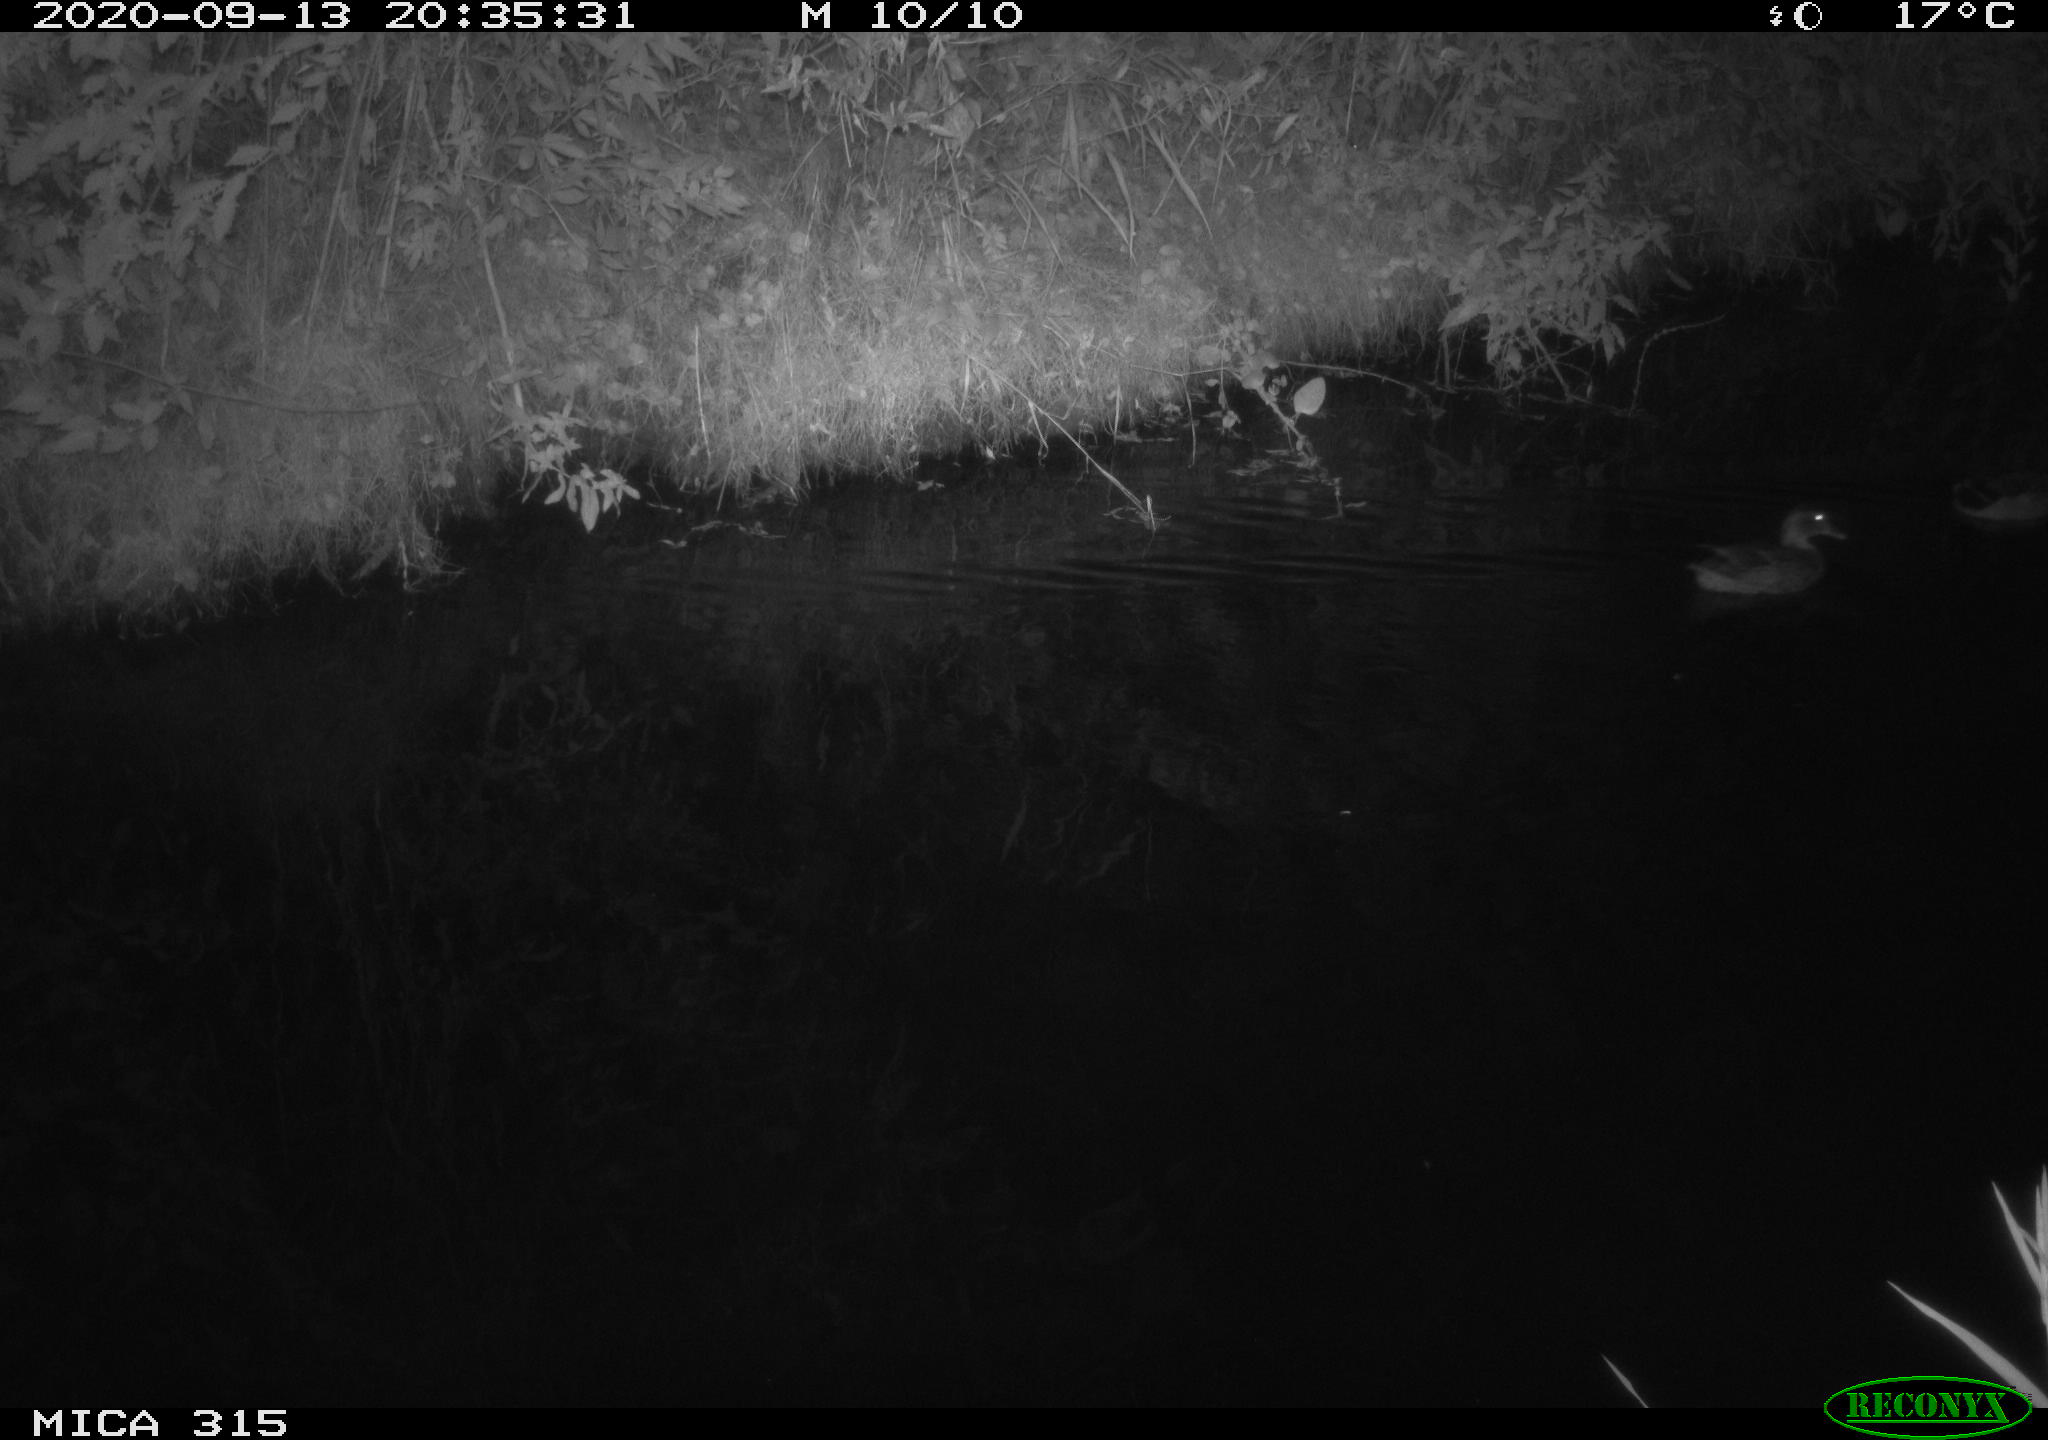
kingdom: Animalia
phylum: Chordata
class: Aves
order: Anseriformes
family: Anatidae
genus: Anas
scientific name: Anas platyrhynchos
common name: Mallard
